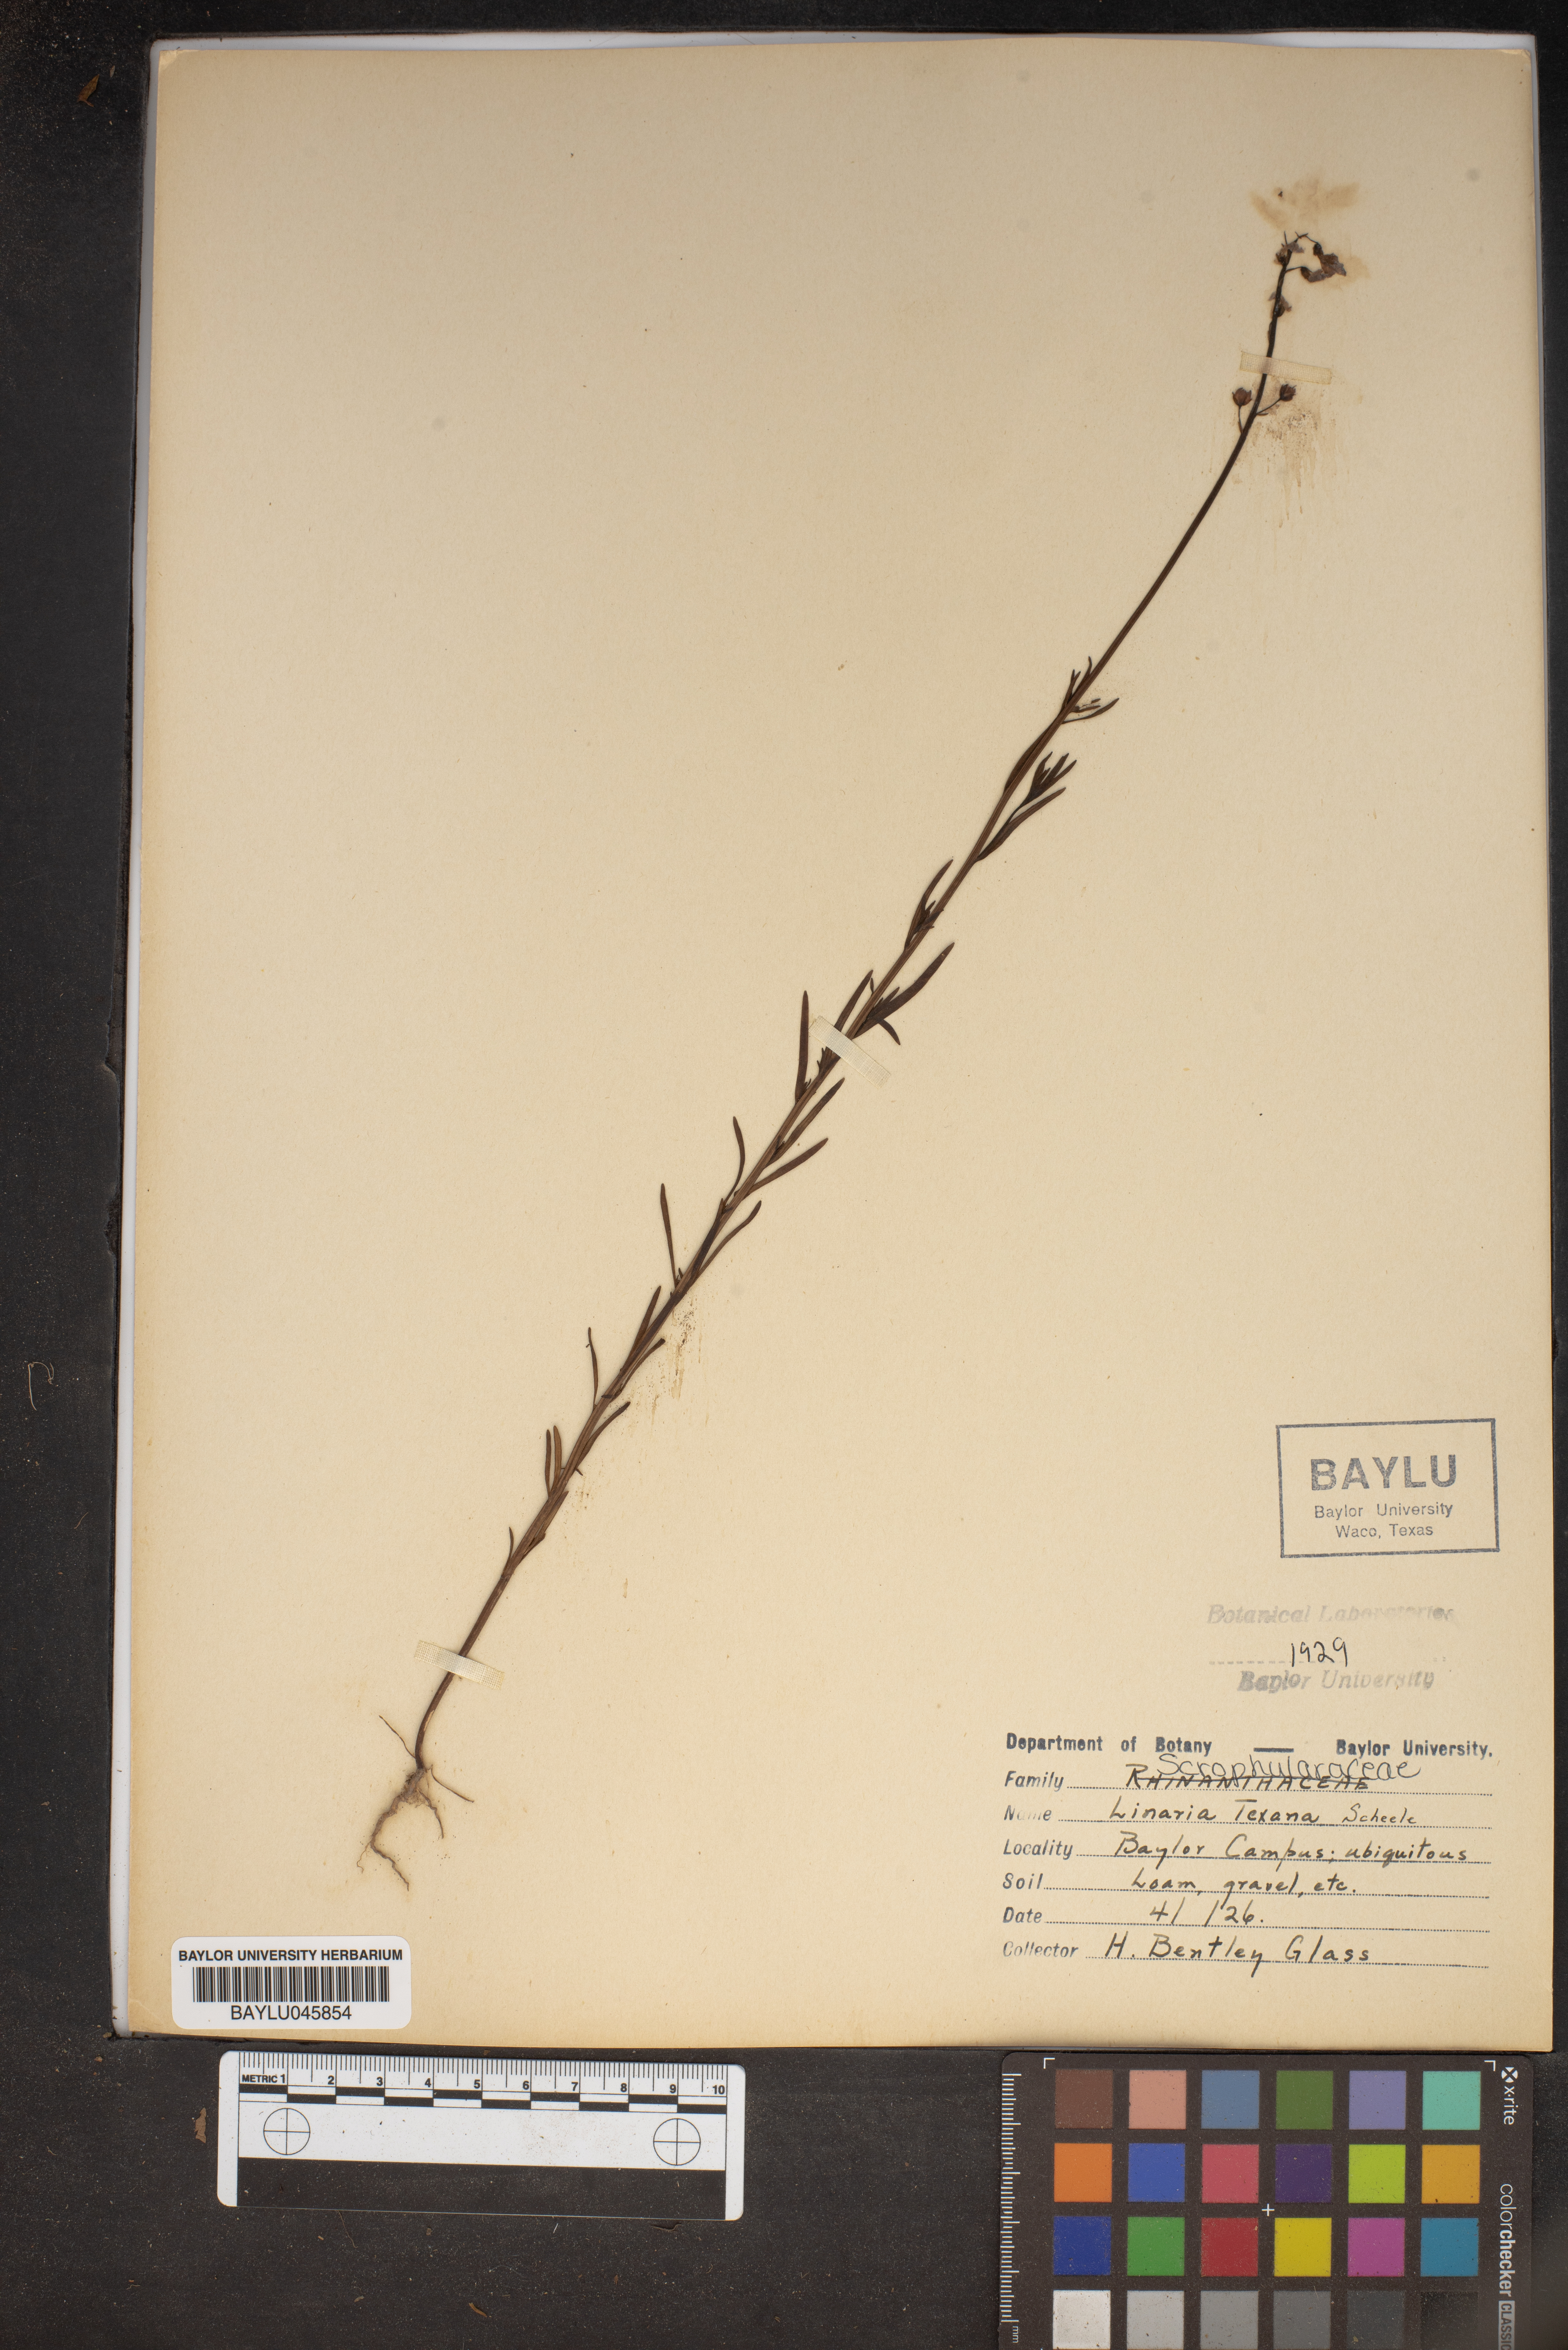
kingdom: Plantae
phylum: Tracheophyta
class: Magnoliopsida
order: Lamiales
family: Plantaginaceae
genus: Nuttallanthus
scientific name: Nuttallanthus texanus
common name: Texas toadflax
